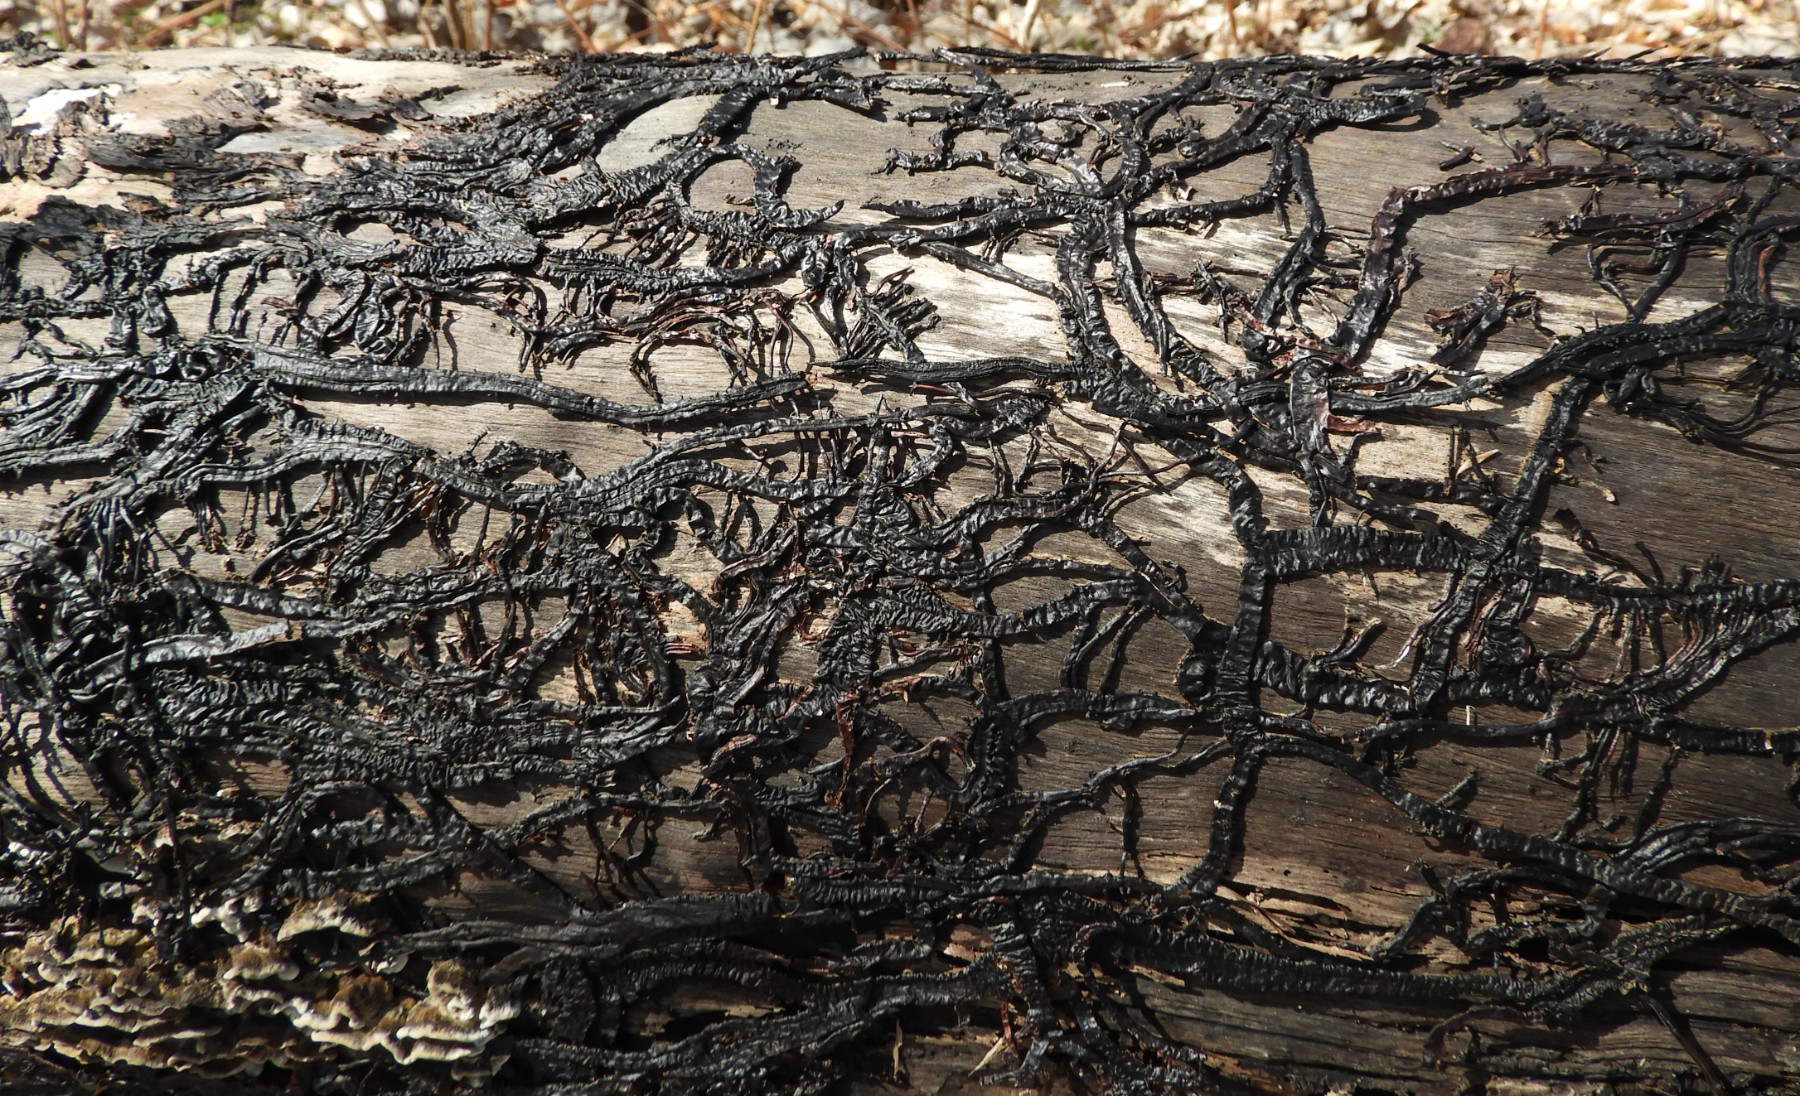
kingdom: Fungi
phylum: Basidiomycota
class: Agaricomycetes
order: Agaricales
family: Physalacriaceae
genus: Armillaria
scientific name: Armillaria
